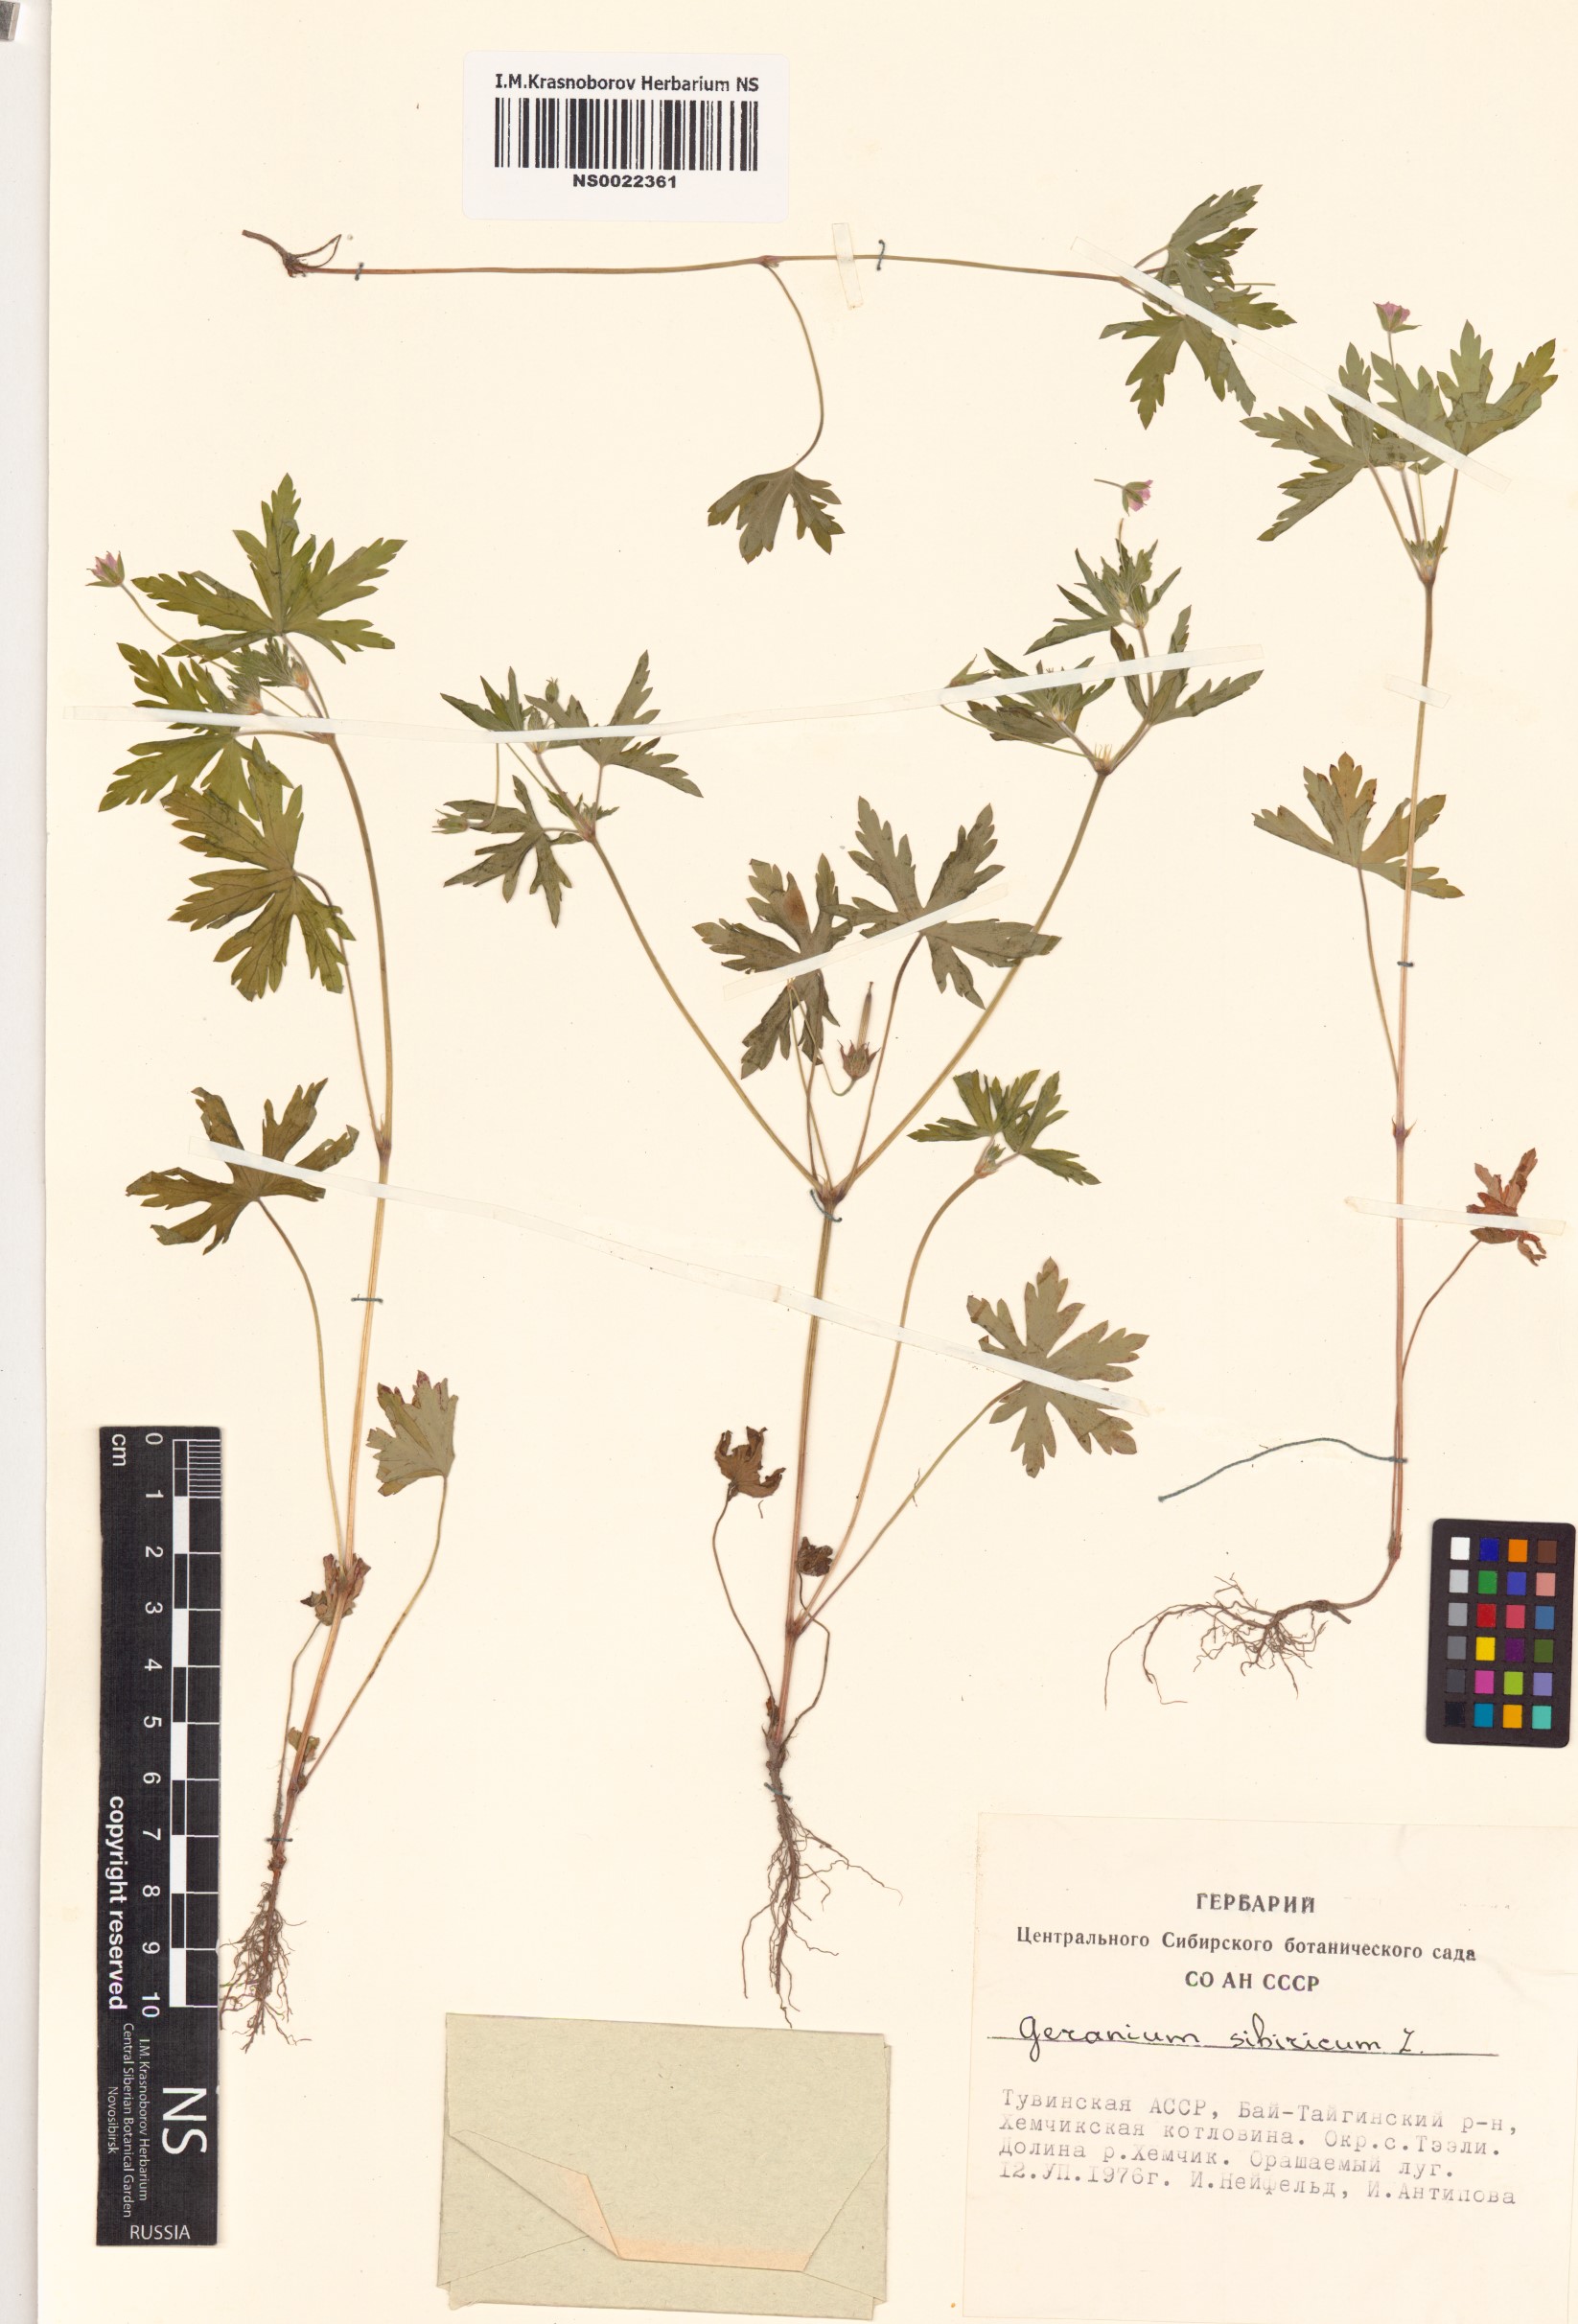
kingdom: Plantae
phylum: Tracheophyta
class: Magnoliopsida
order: Geraniales
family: Geraniaceae
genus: Geranium
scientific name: Geranium sibiricum
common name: Siberian crane's-bill
